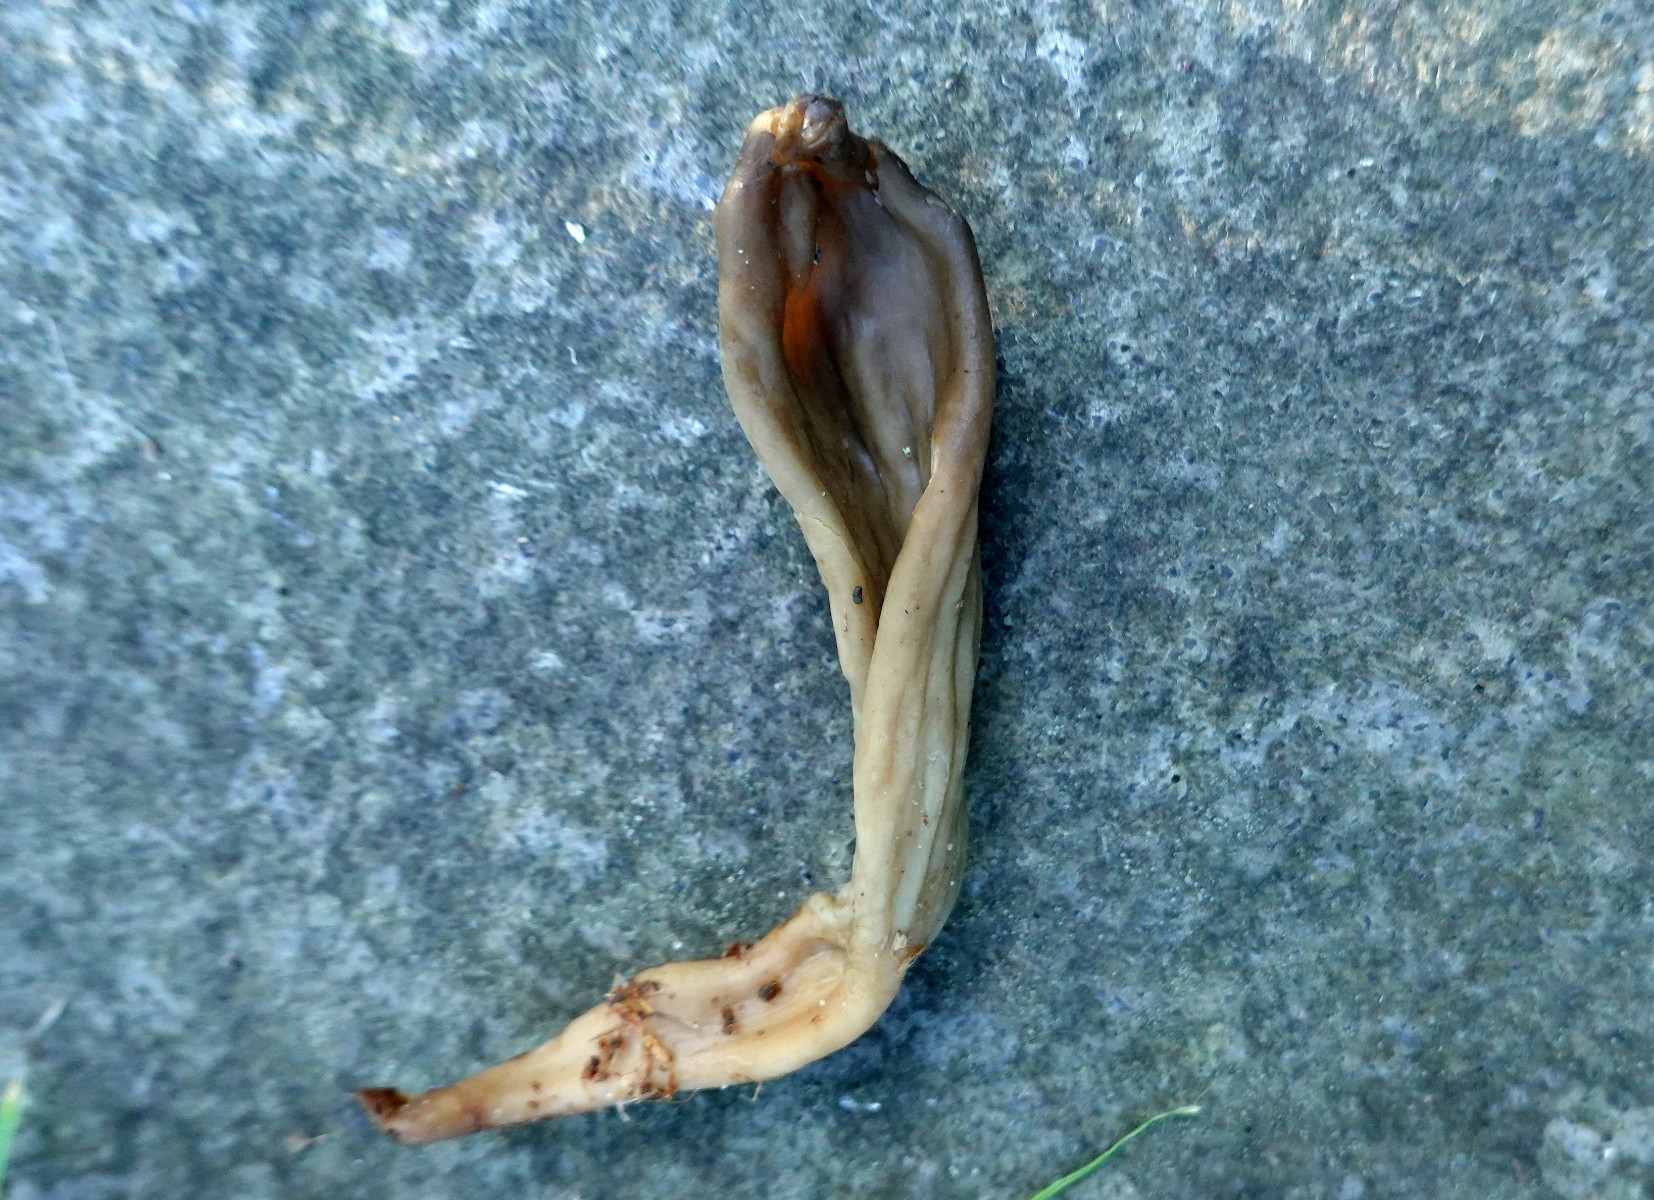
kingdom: Fungi
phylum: Ascomycota
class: Leotiomycetes
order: Helotiales
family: Lachnaceae
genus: Microglossum
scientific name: Microglossum
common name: farvetunge
